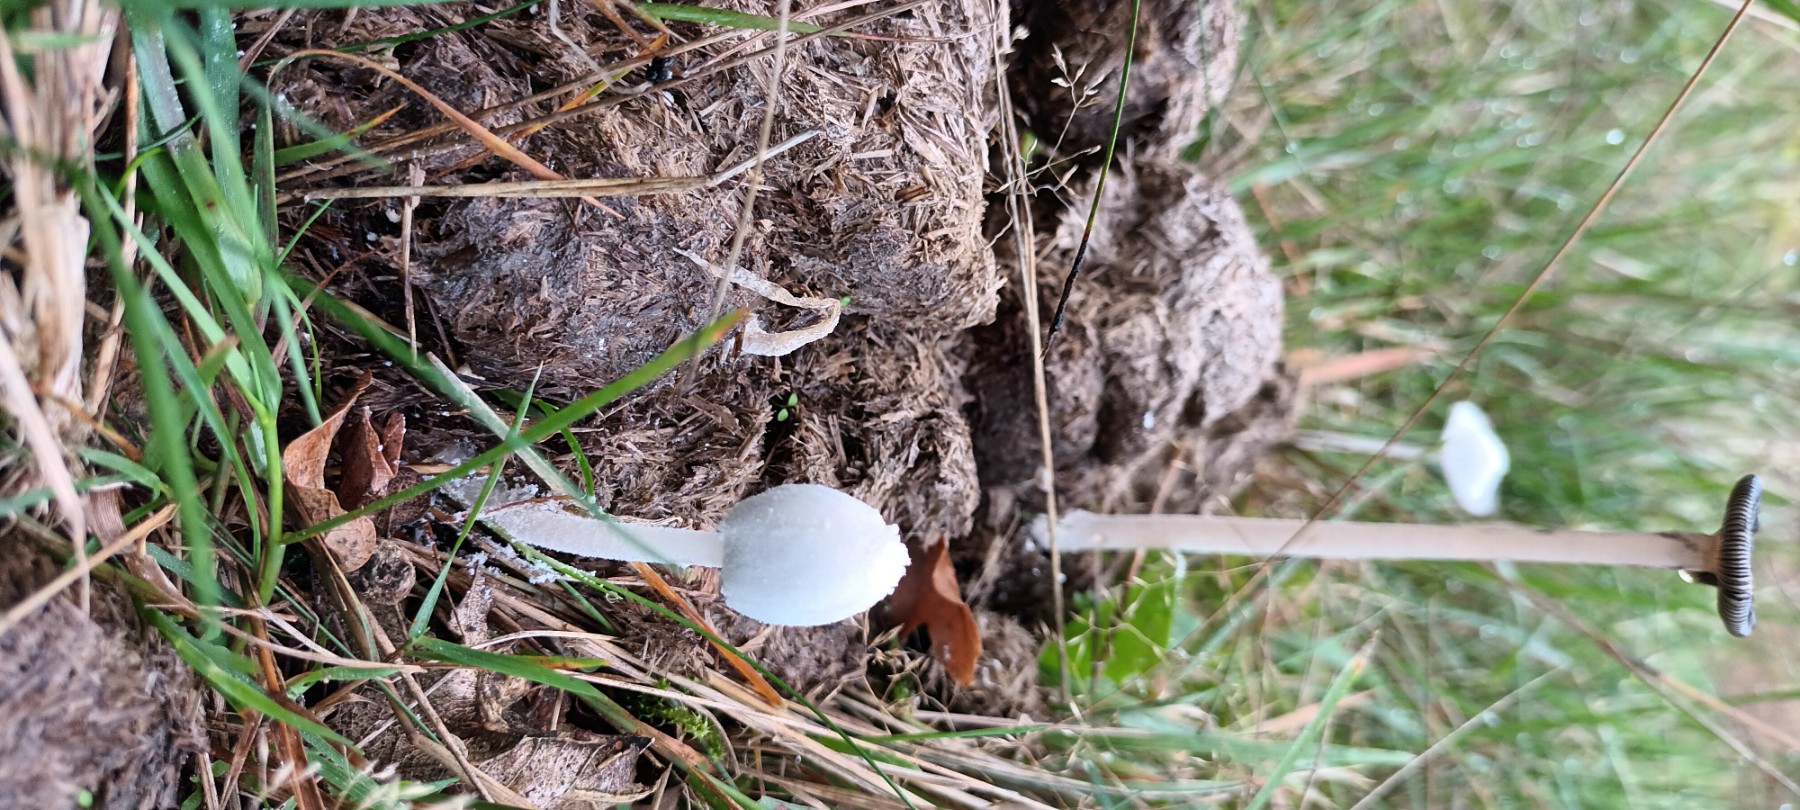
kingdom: Fungi
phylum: Basidiomycota
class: Agaricomycetes
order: Agaricales
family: Psathyrellaceae
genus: Coprinopsis
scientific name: Coprinopsis nivea
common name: snehvid blækhat
